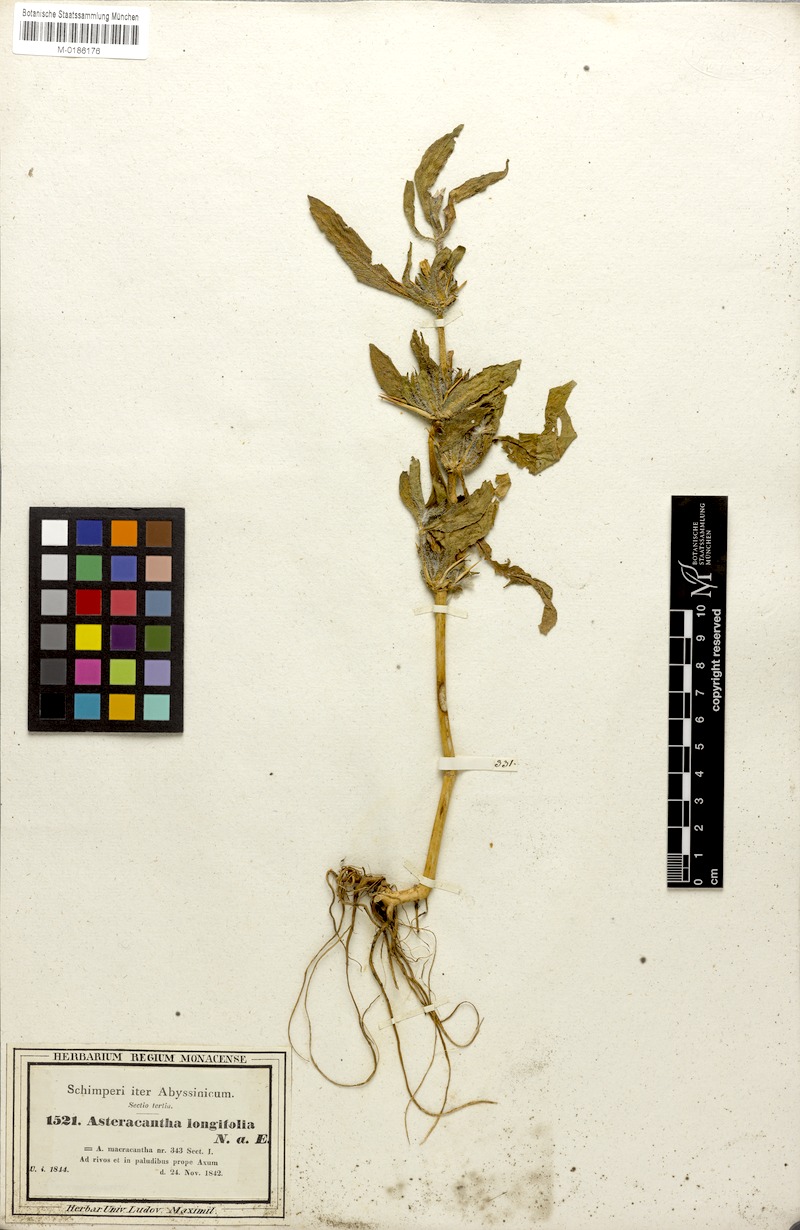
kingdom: Plantae
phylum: Tracheophyta
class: Magnoliopsida
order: Lamiales
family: Acanthaceae
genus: Hygrophila
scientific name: Hygrophila auriculata
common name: Hygrophila
